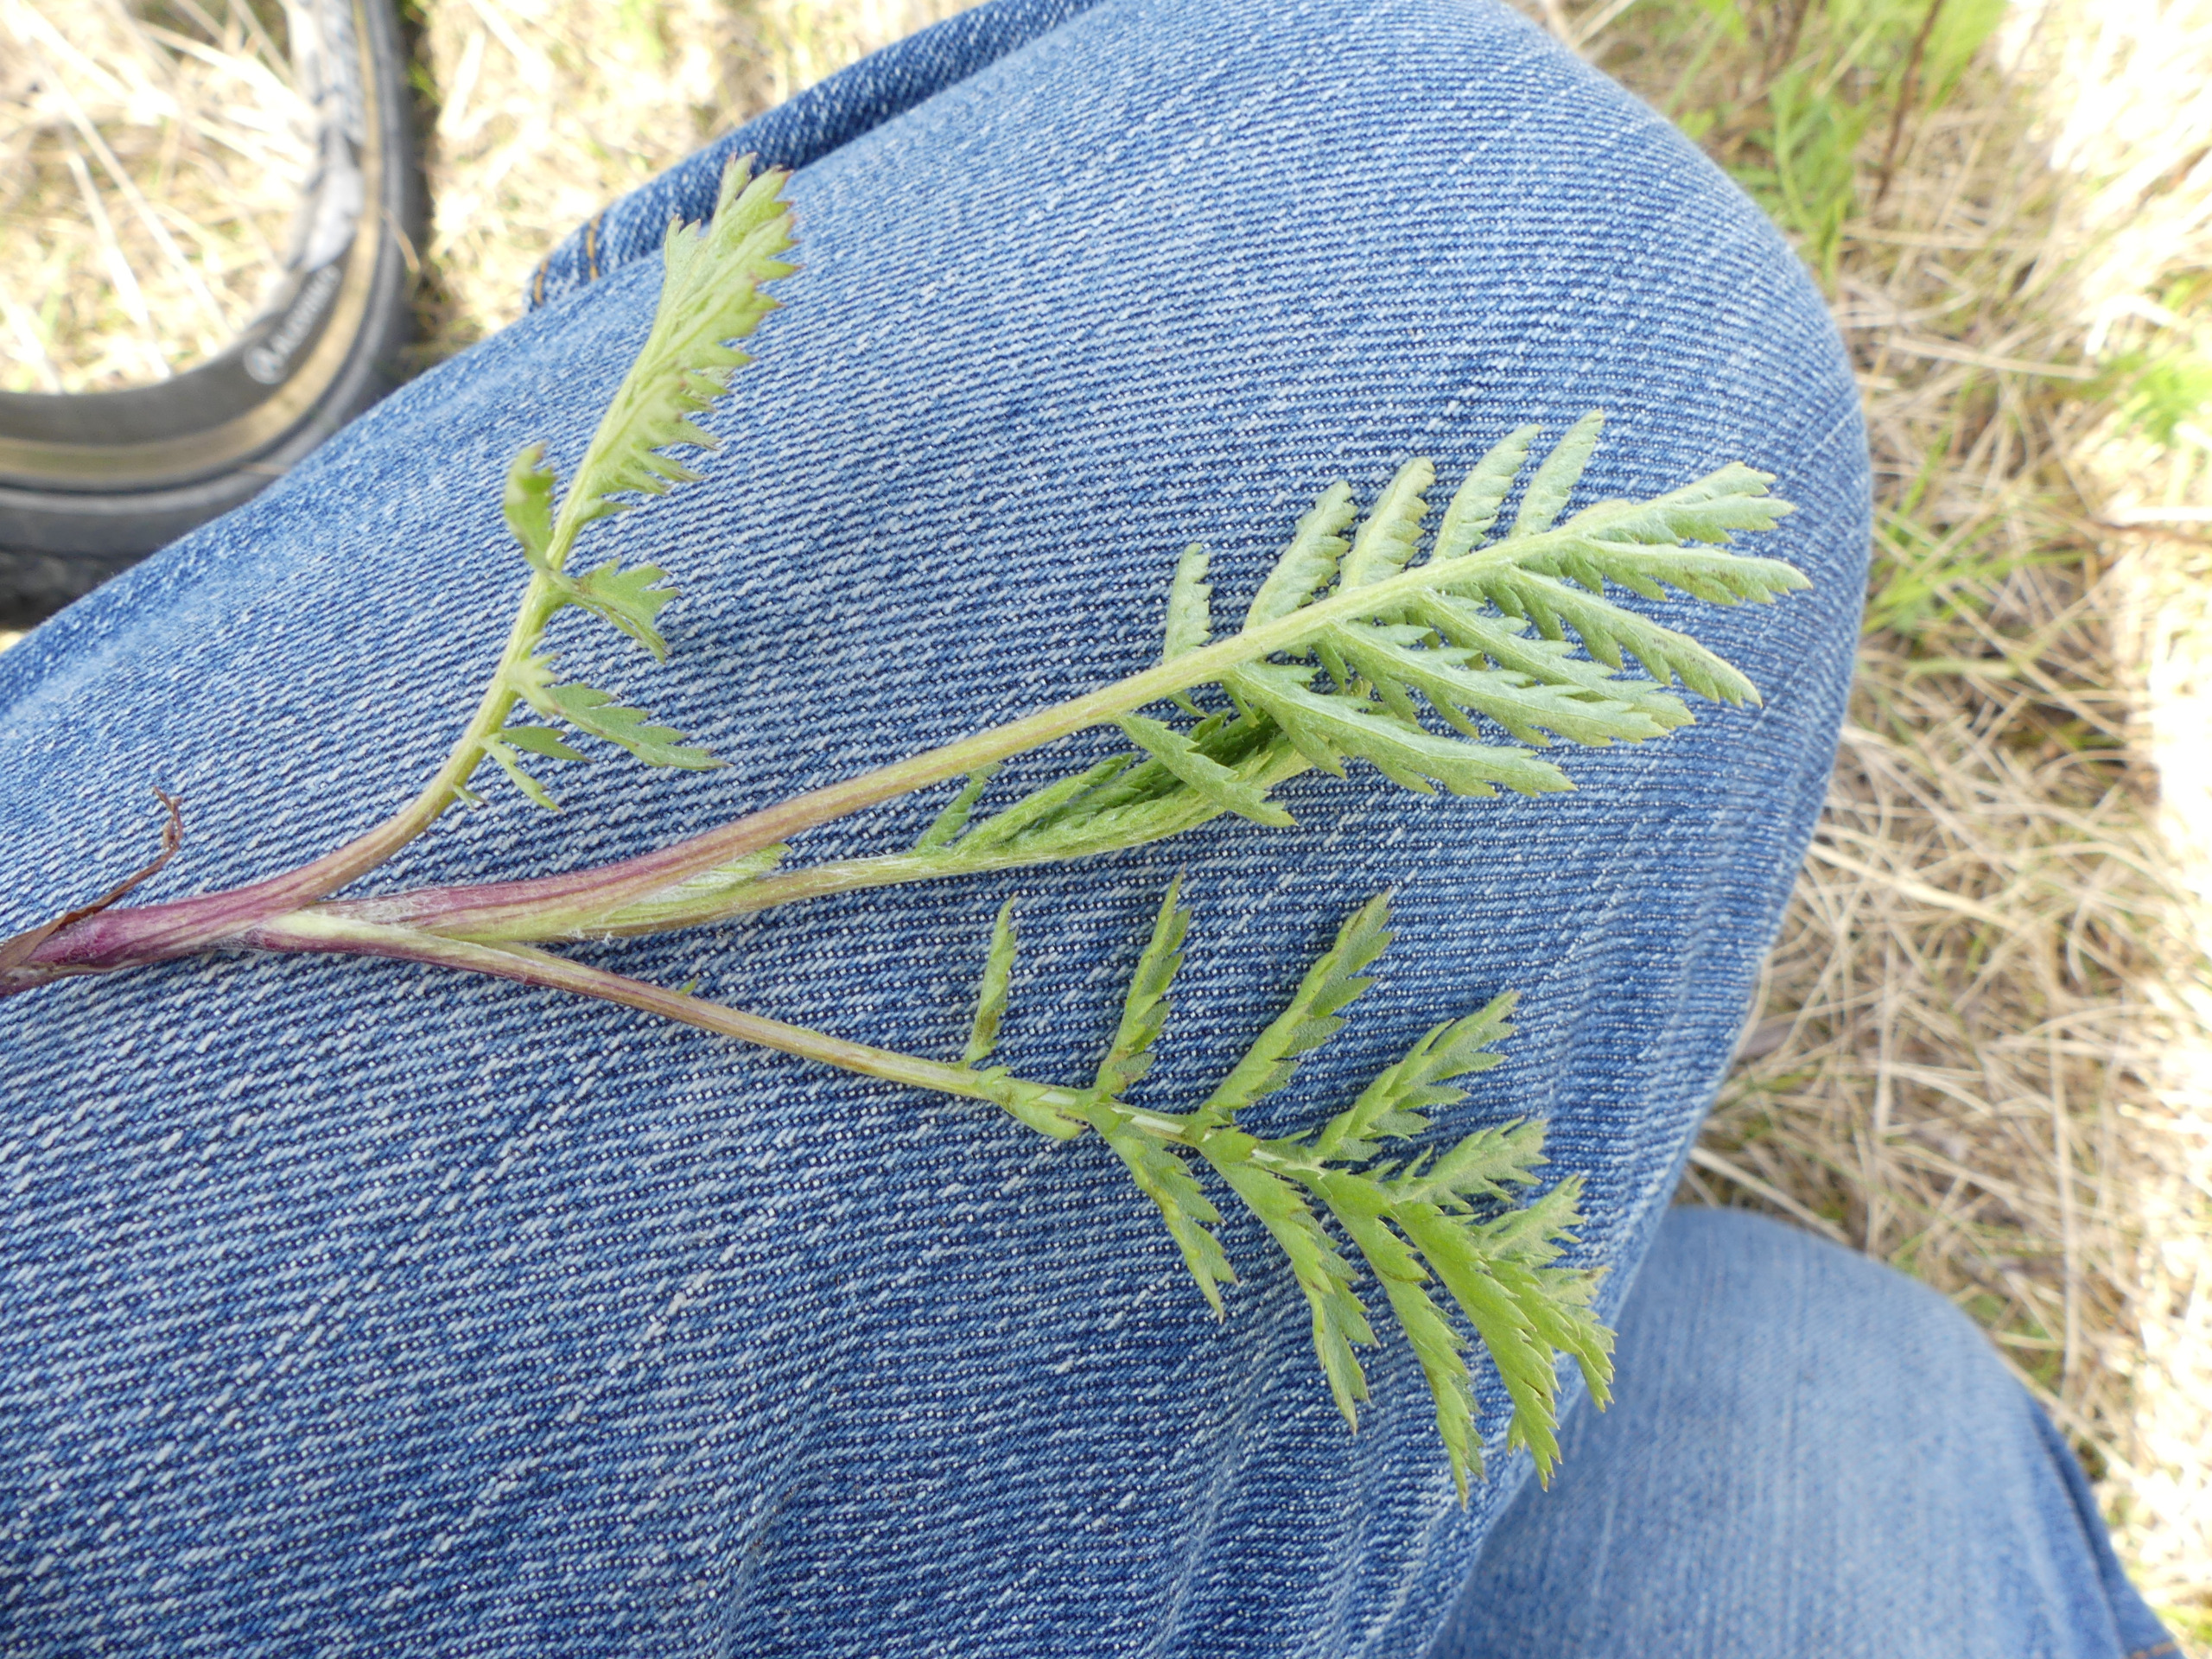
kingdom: Plantae
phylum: Tracheophyta
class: Magnoliopsida
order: Asterales
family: Asteraceae
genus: Tanacetum
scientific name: Tanacetum vulgare
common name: Rejnfan
